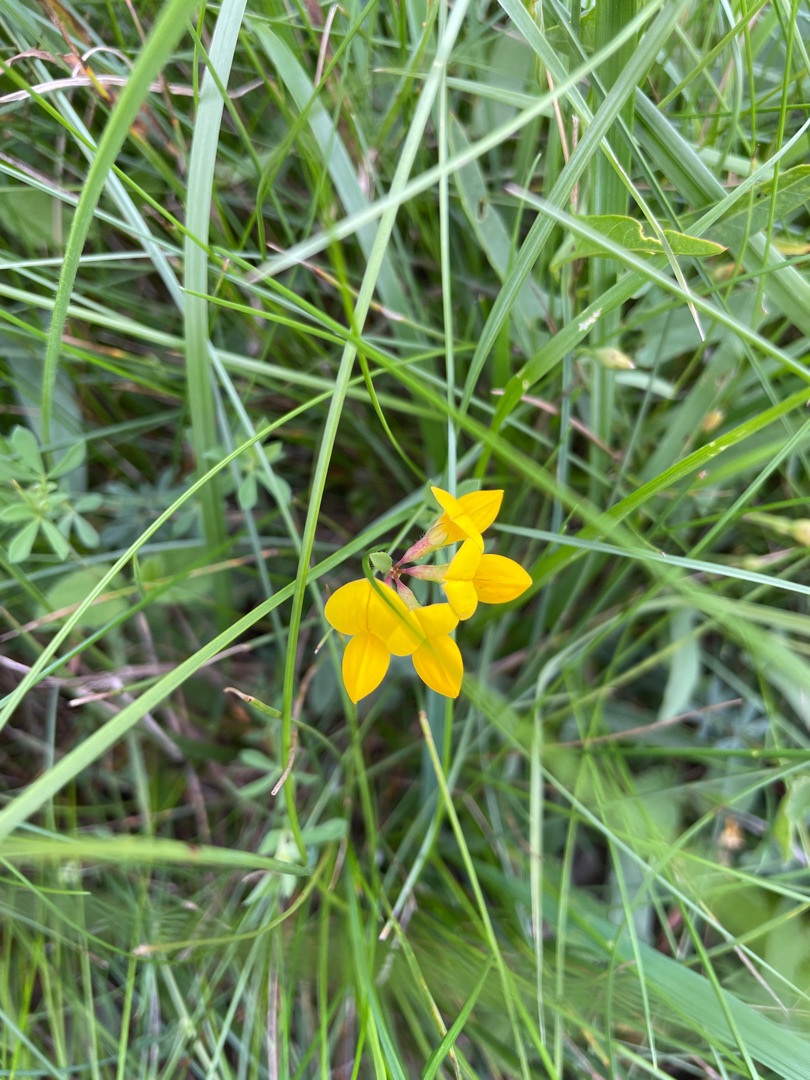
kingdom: Plantae
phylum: Tracheophyta
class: Magnoliopsida
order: Fabales
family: Fabaceae
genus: Lotus
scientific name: Lotus corniculatus
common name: Almindelig kællingetand
